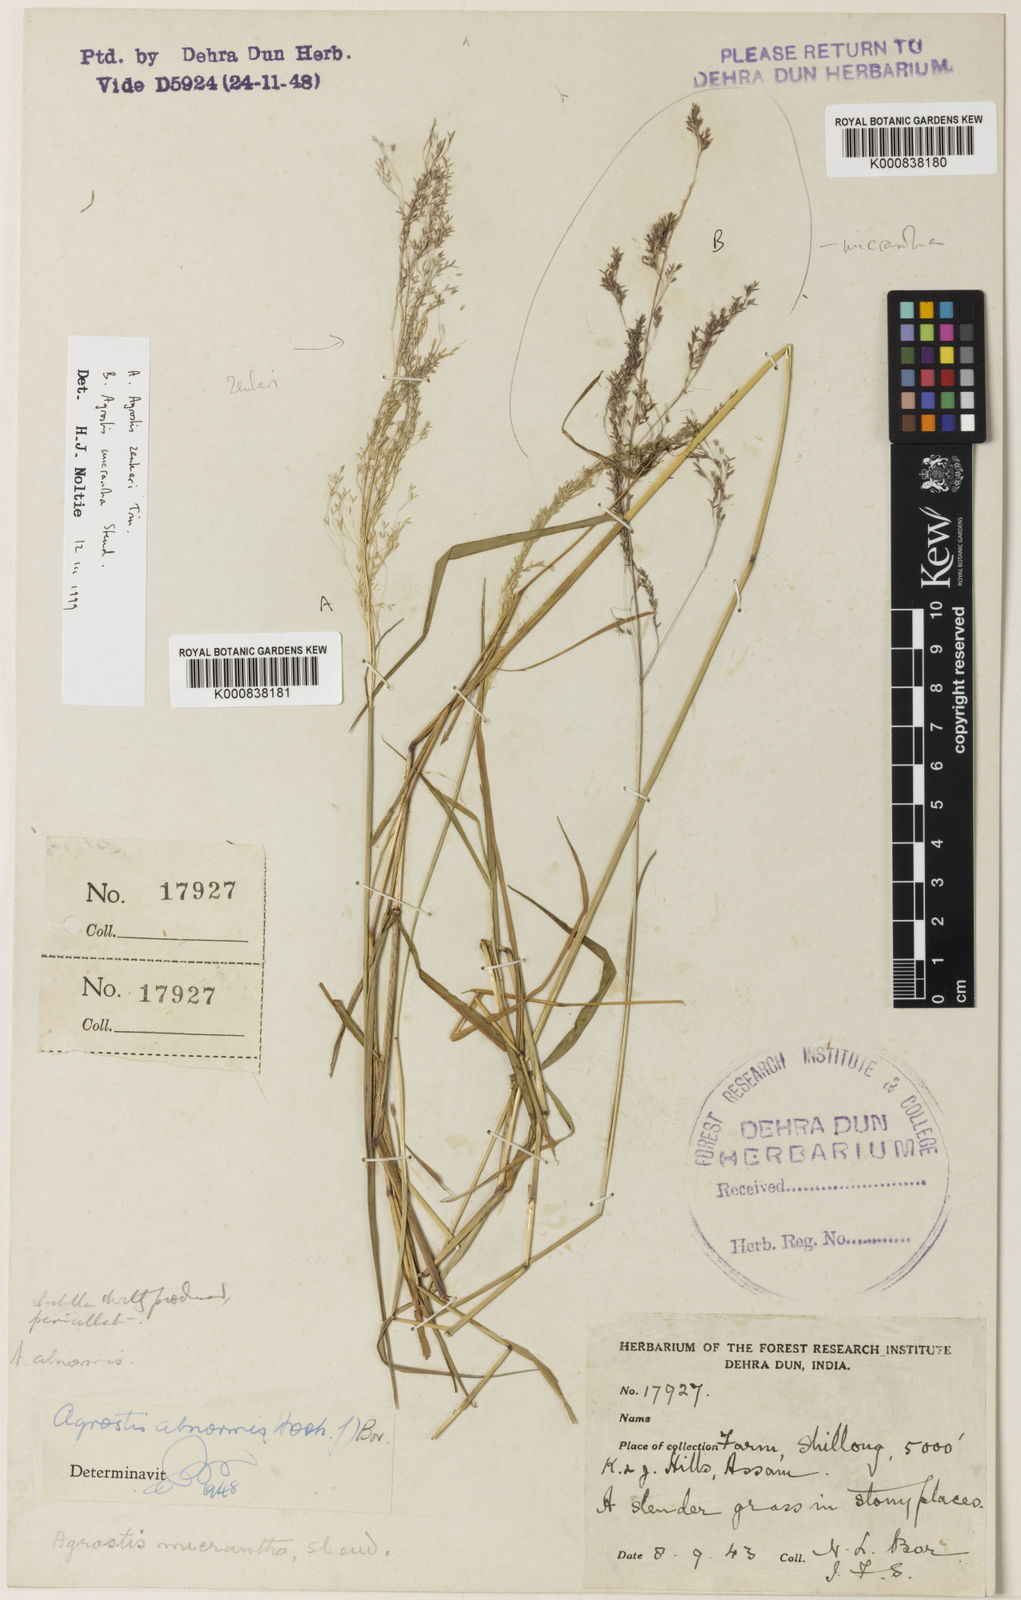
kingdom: Plantae
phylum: Tracheophyta
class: Liliopsida
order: Poales
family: Poaceae
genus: Calamagrostis
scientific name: Calamagrostis abnormis
